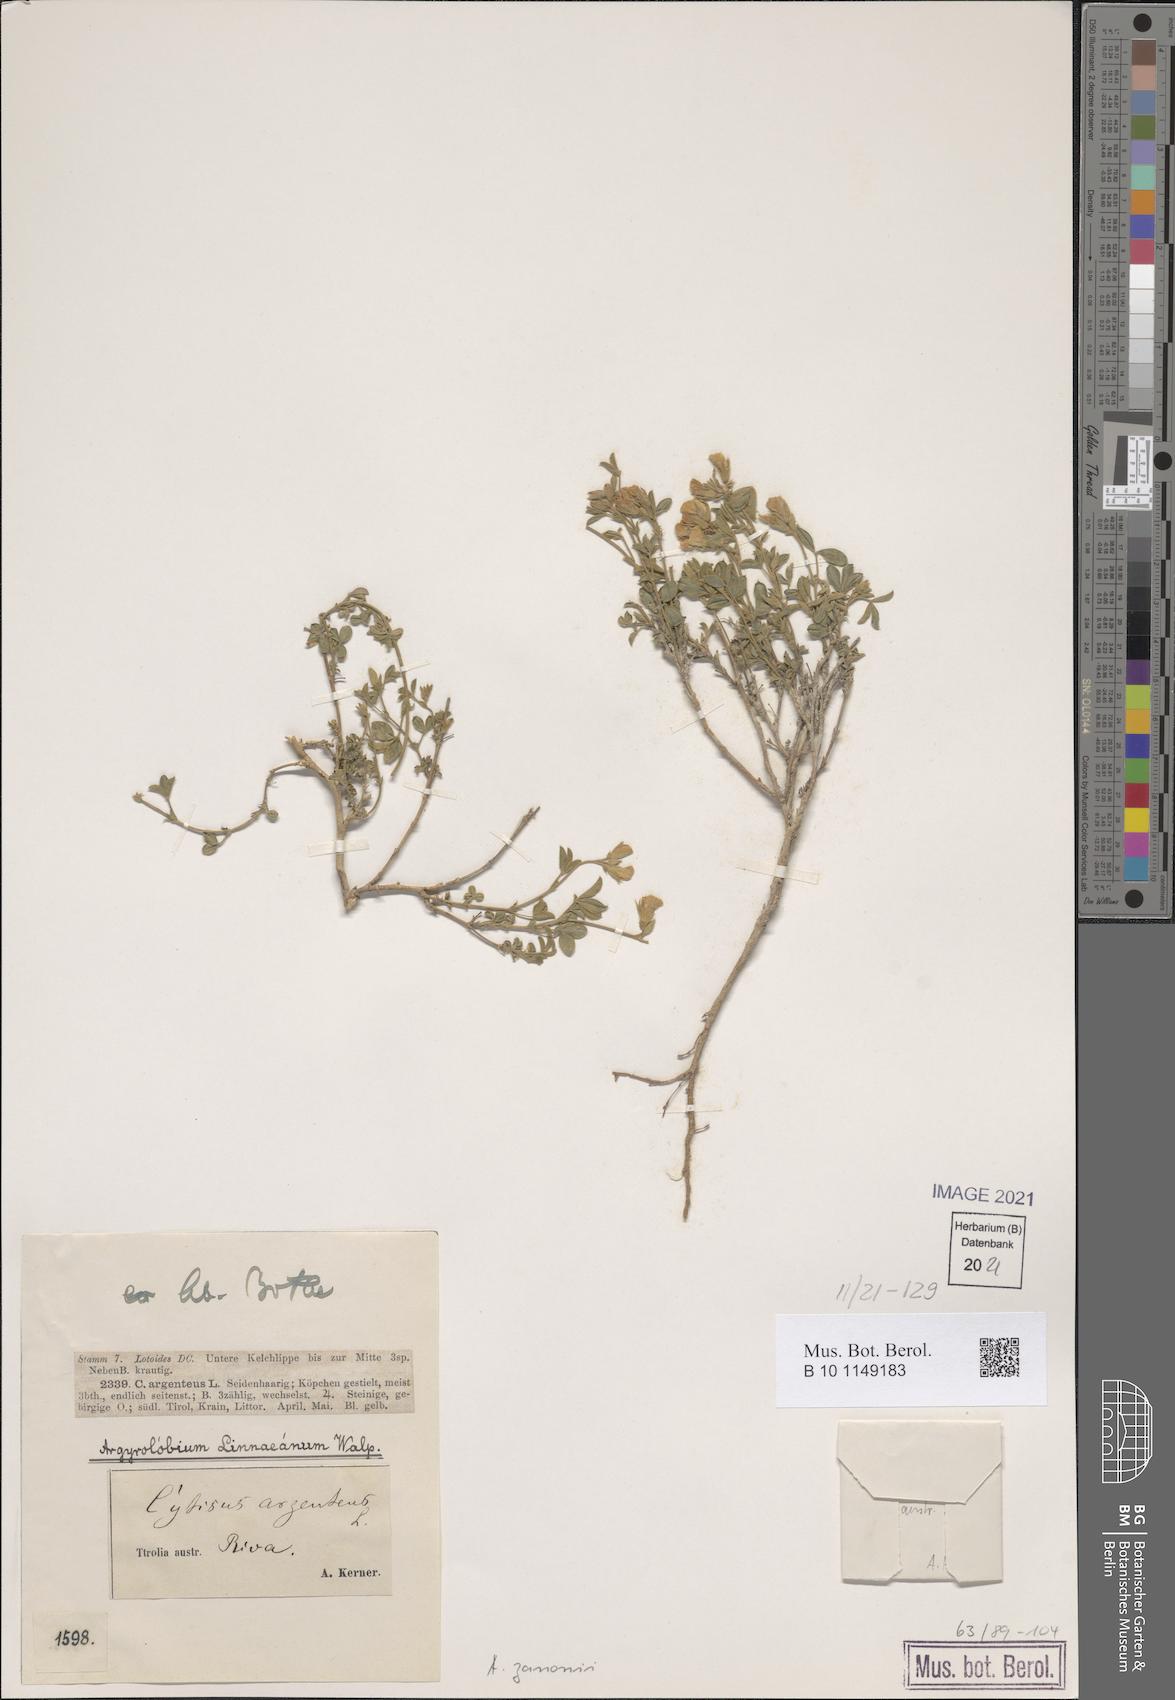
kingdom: Plantae
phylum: Tracheophyta
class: Magnoliopsida
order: Fabales
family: Fabaceae
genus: Argyrolobium
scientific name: Argyrolobium zanonii
